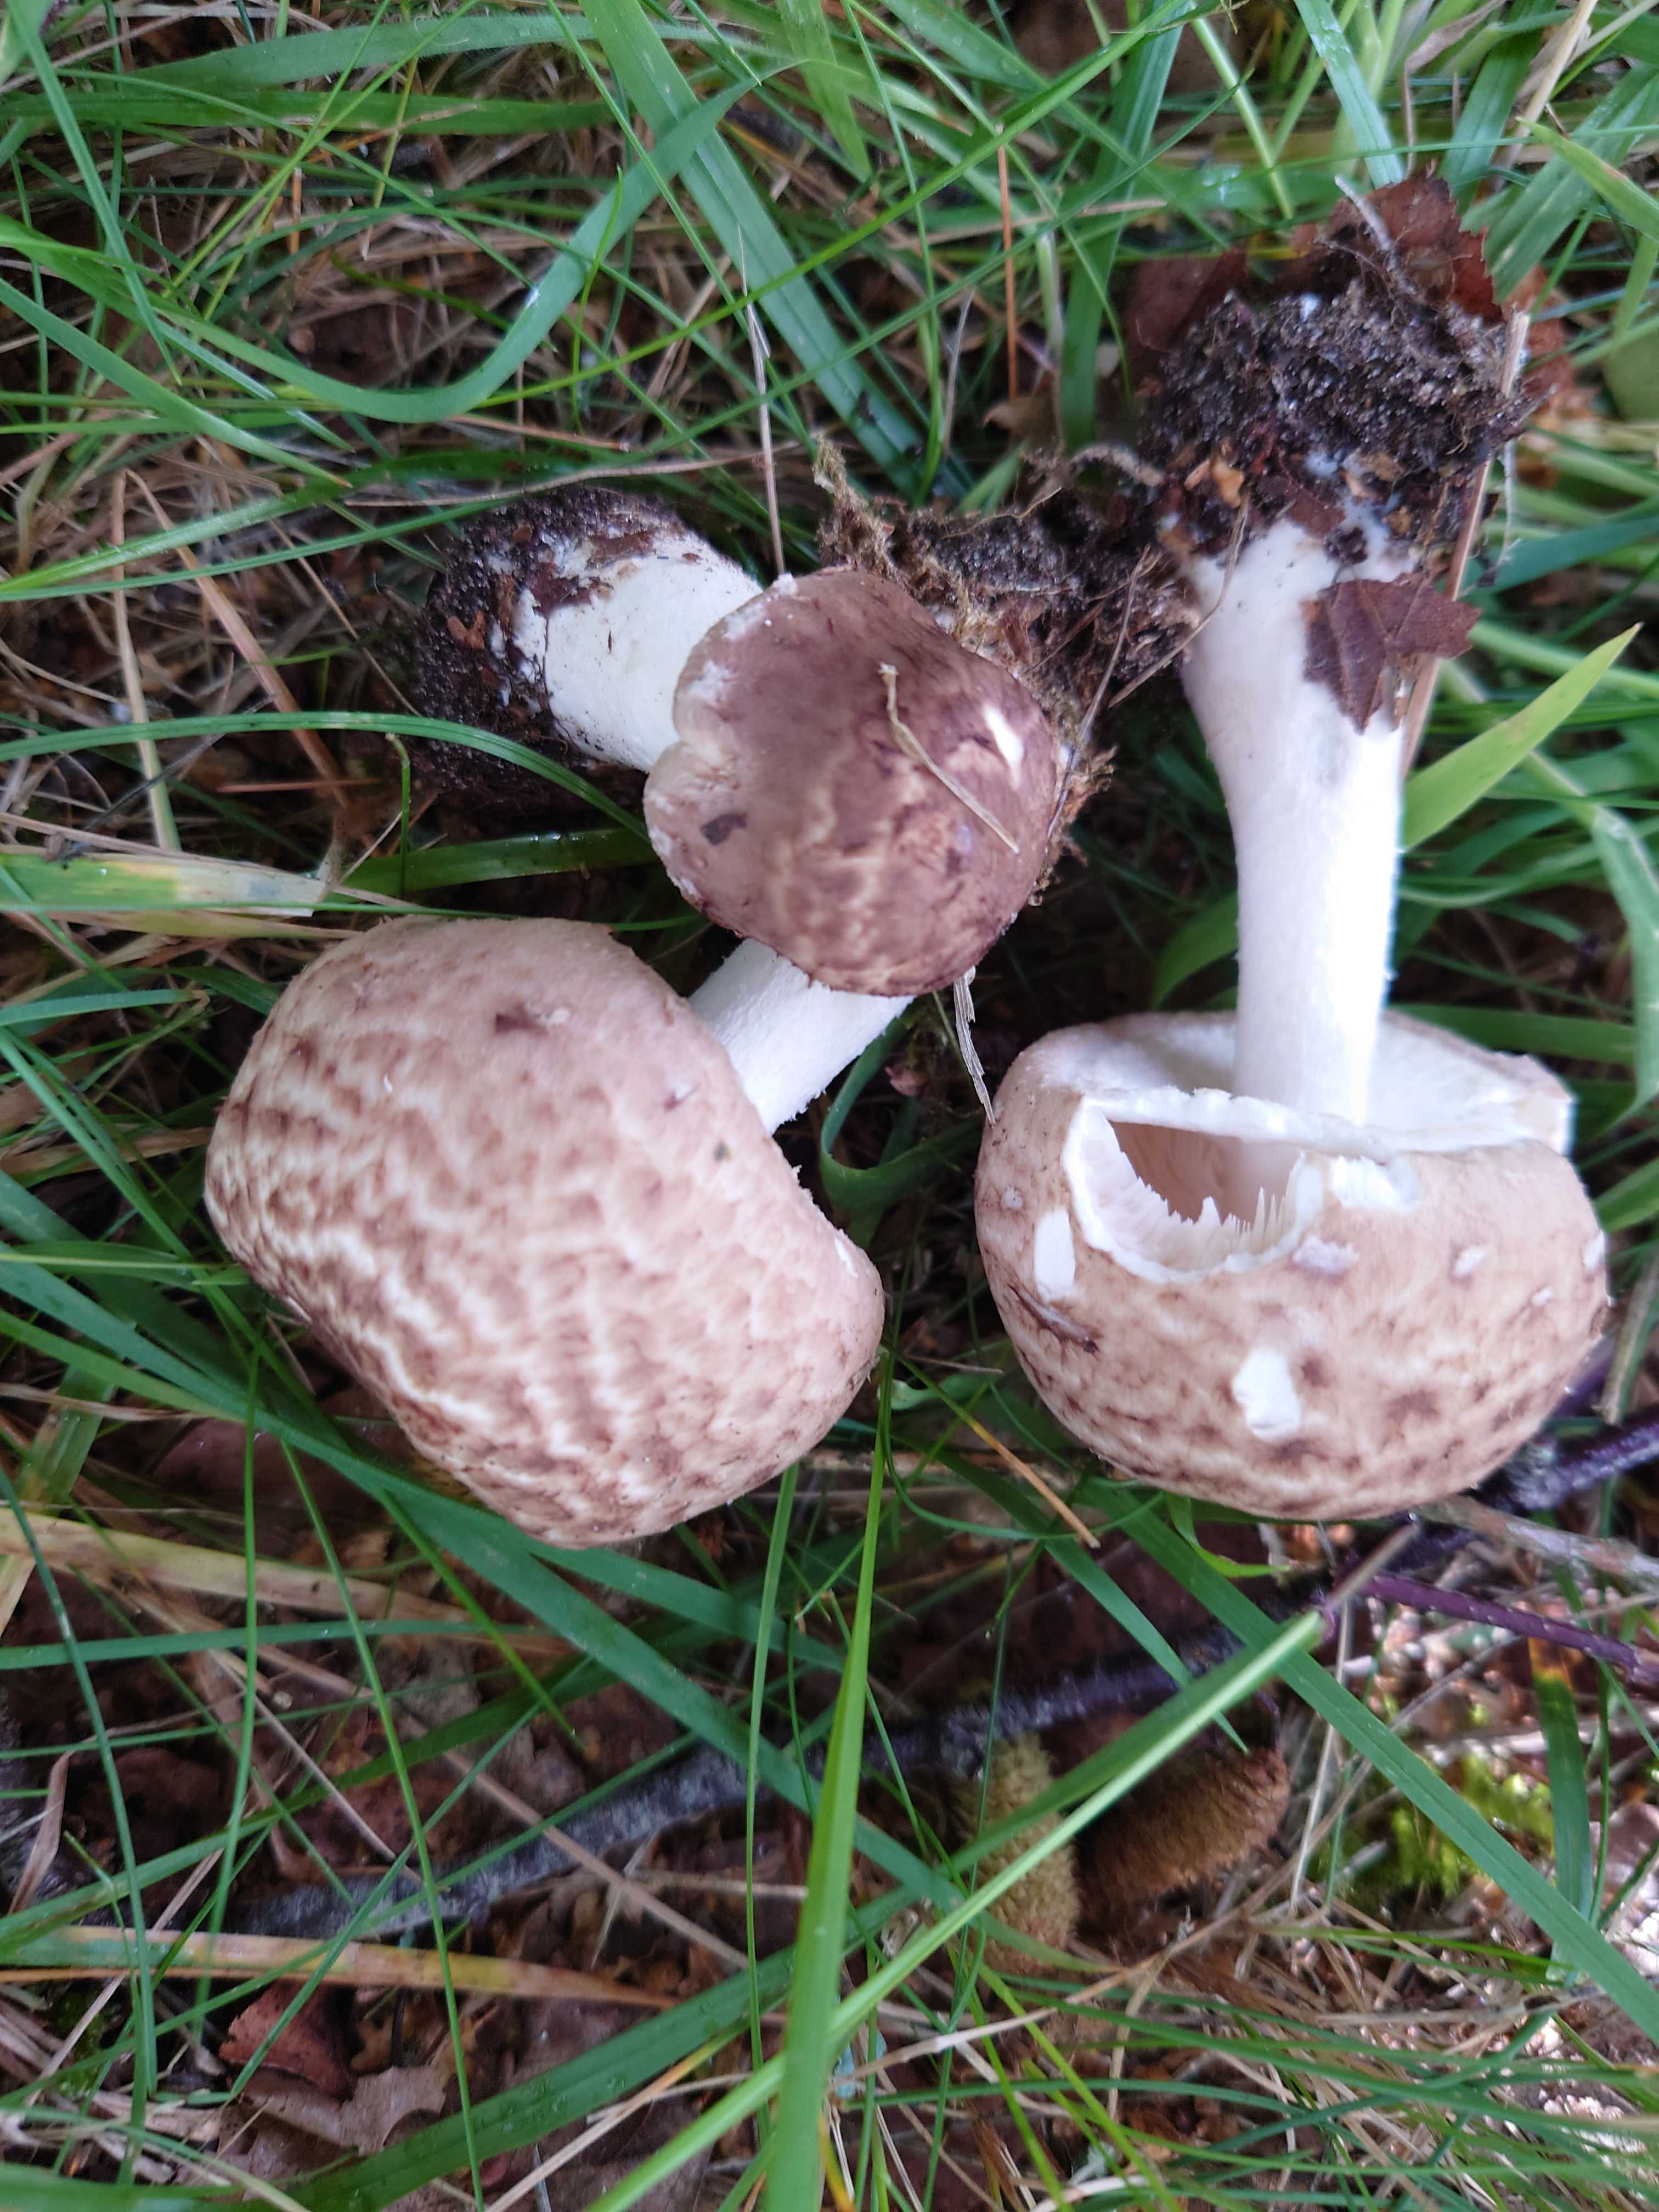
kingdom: Fungi
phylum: Basidiomycota
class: Agaricomycetes
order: Agaricales
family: Agaricaceae
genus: Agaricus
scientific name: Agaricus impudicus
